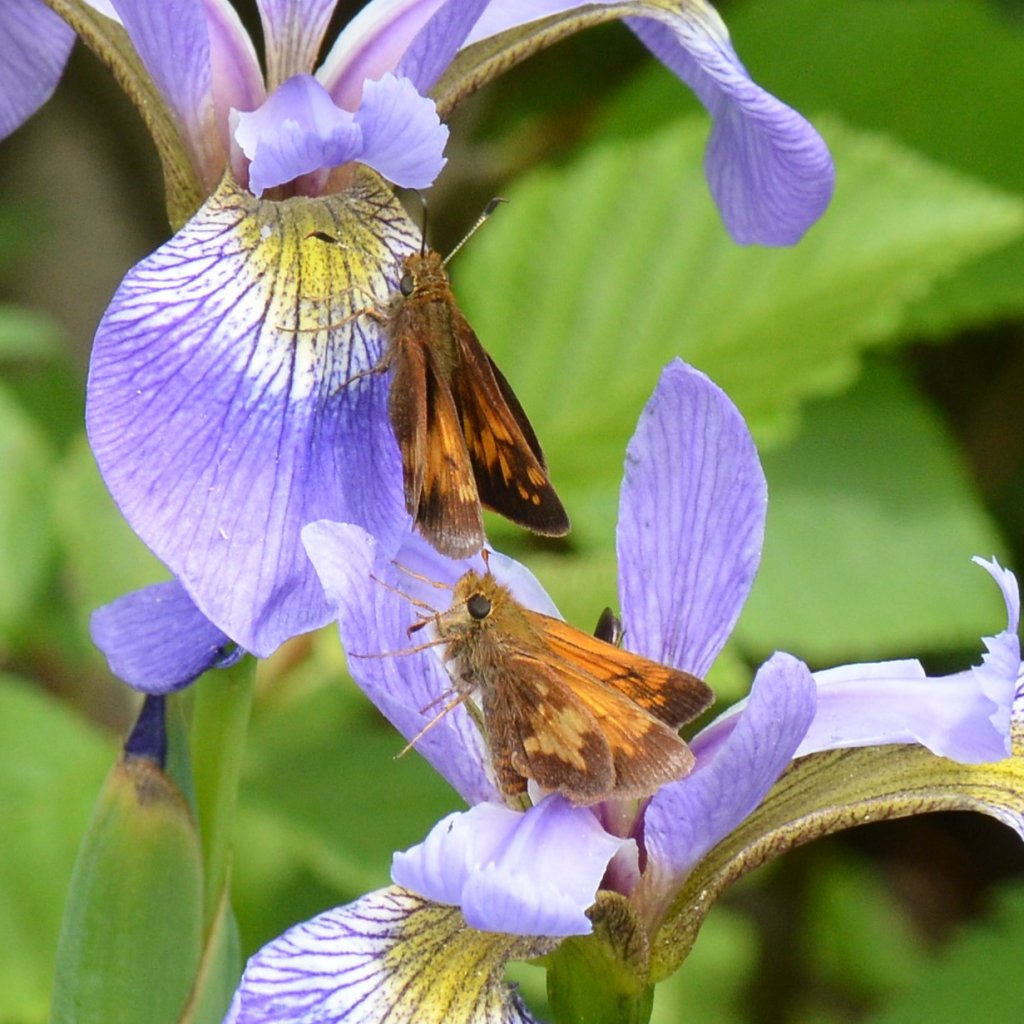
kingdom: Animalia
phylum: Arthropoda
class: Insecta
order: Lepidoptera
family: Hesperiidae
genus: Lon
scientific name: Lon hobomok
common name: Hobomok Skipper
